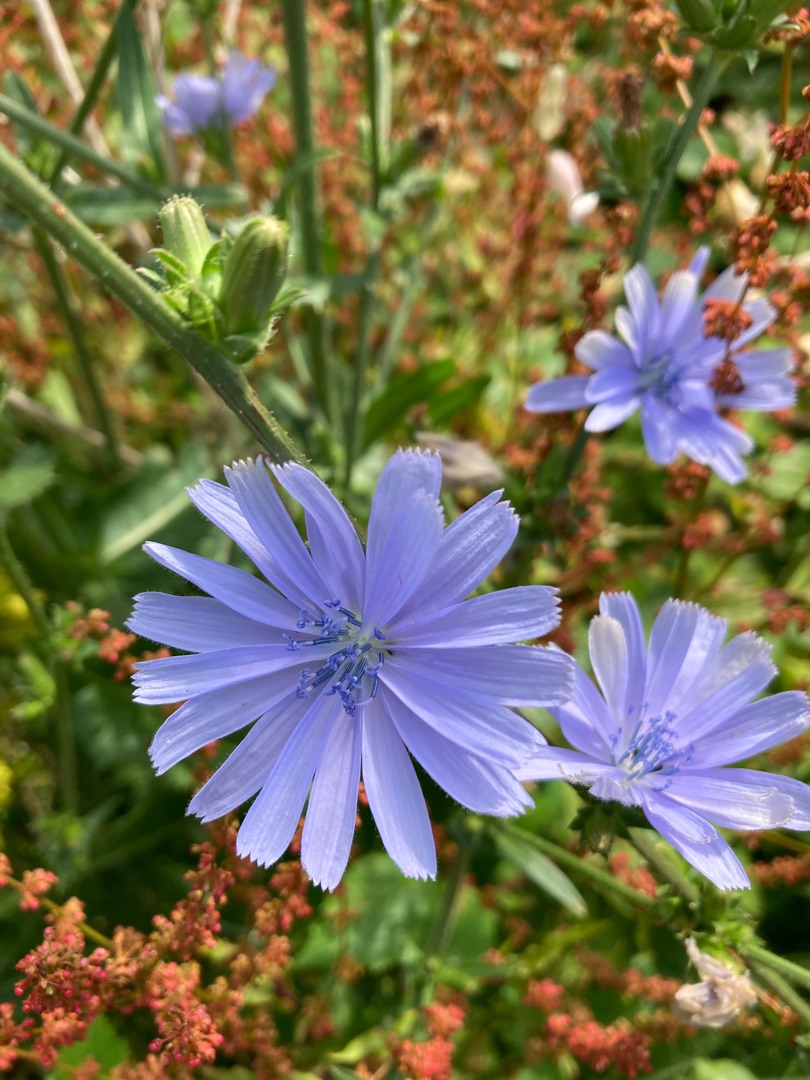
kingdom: Plantae
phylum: Tracheophyta
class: Magnoliopsida
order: Asterales
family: Asteraceae
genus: Cichorium
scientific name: Cichorium intybus
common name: Cikorie
